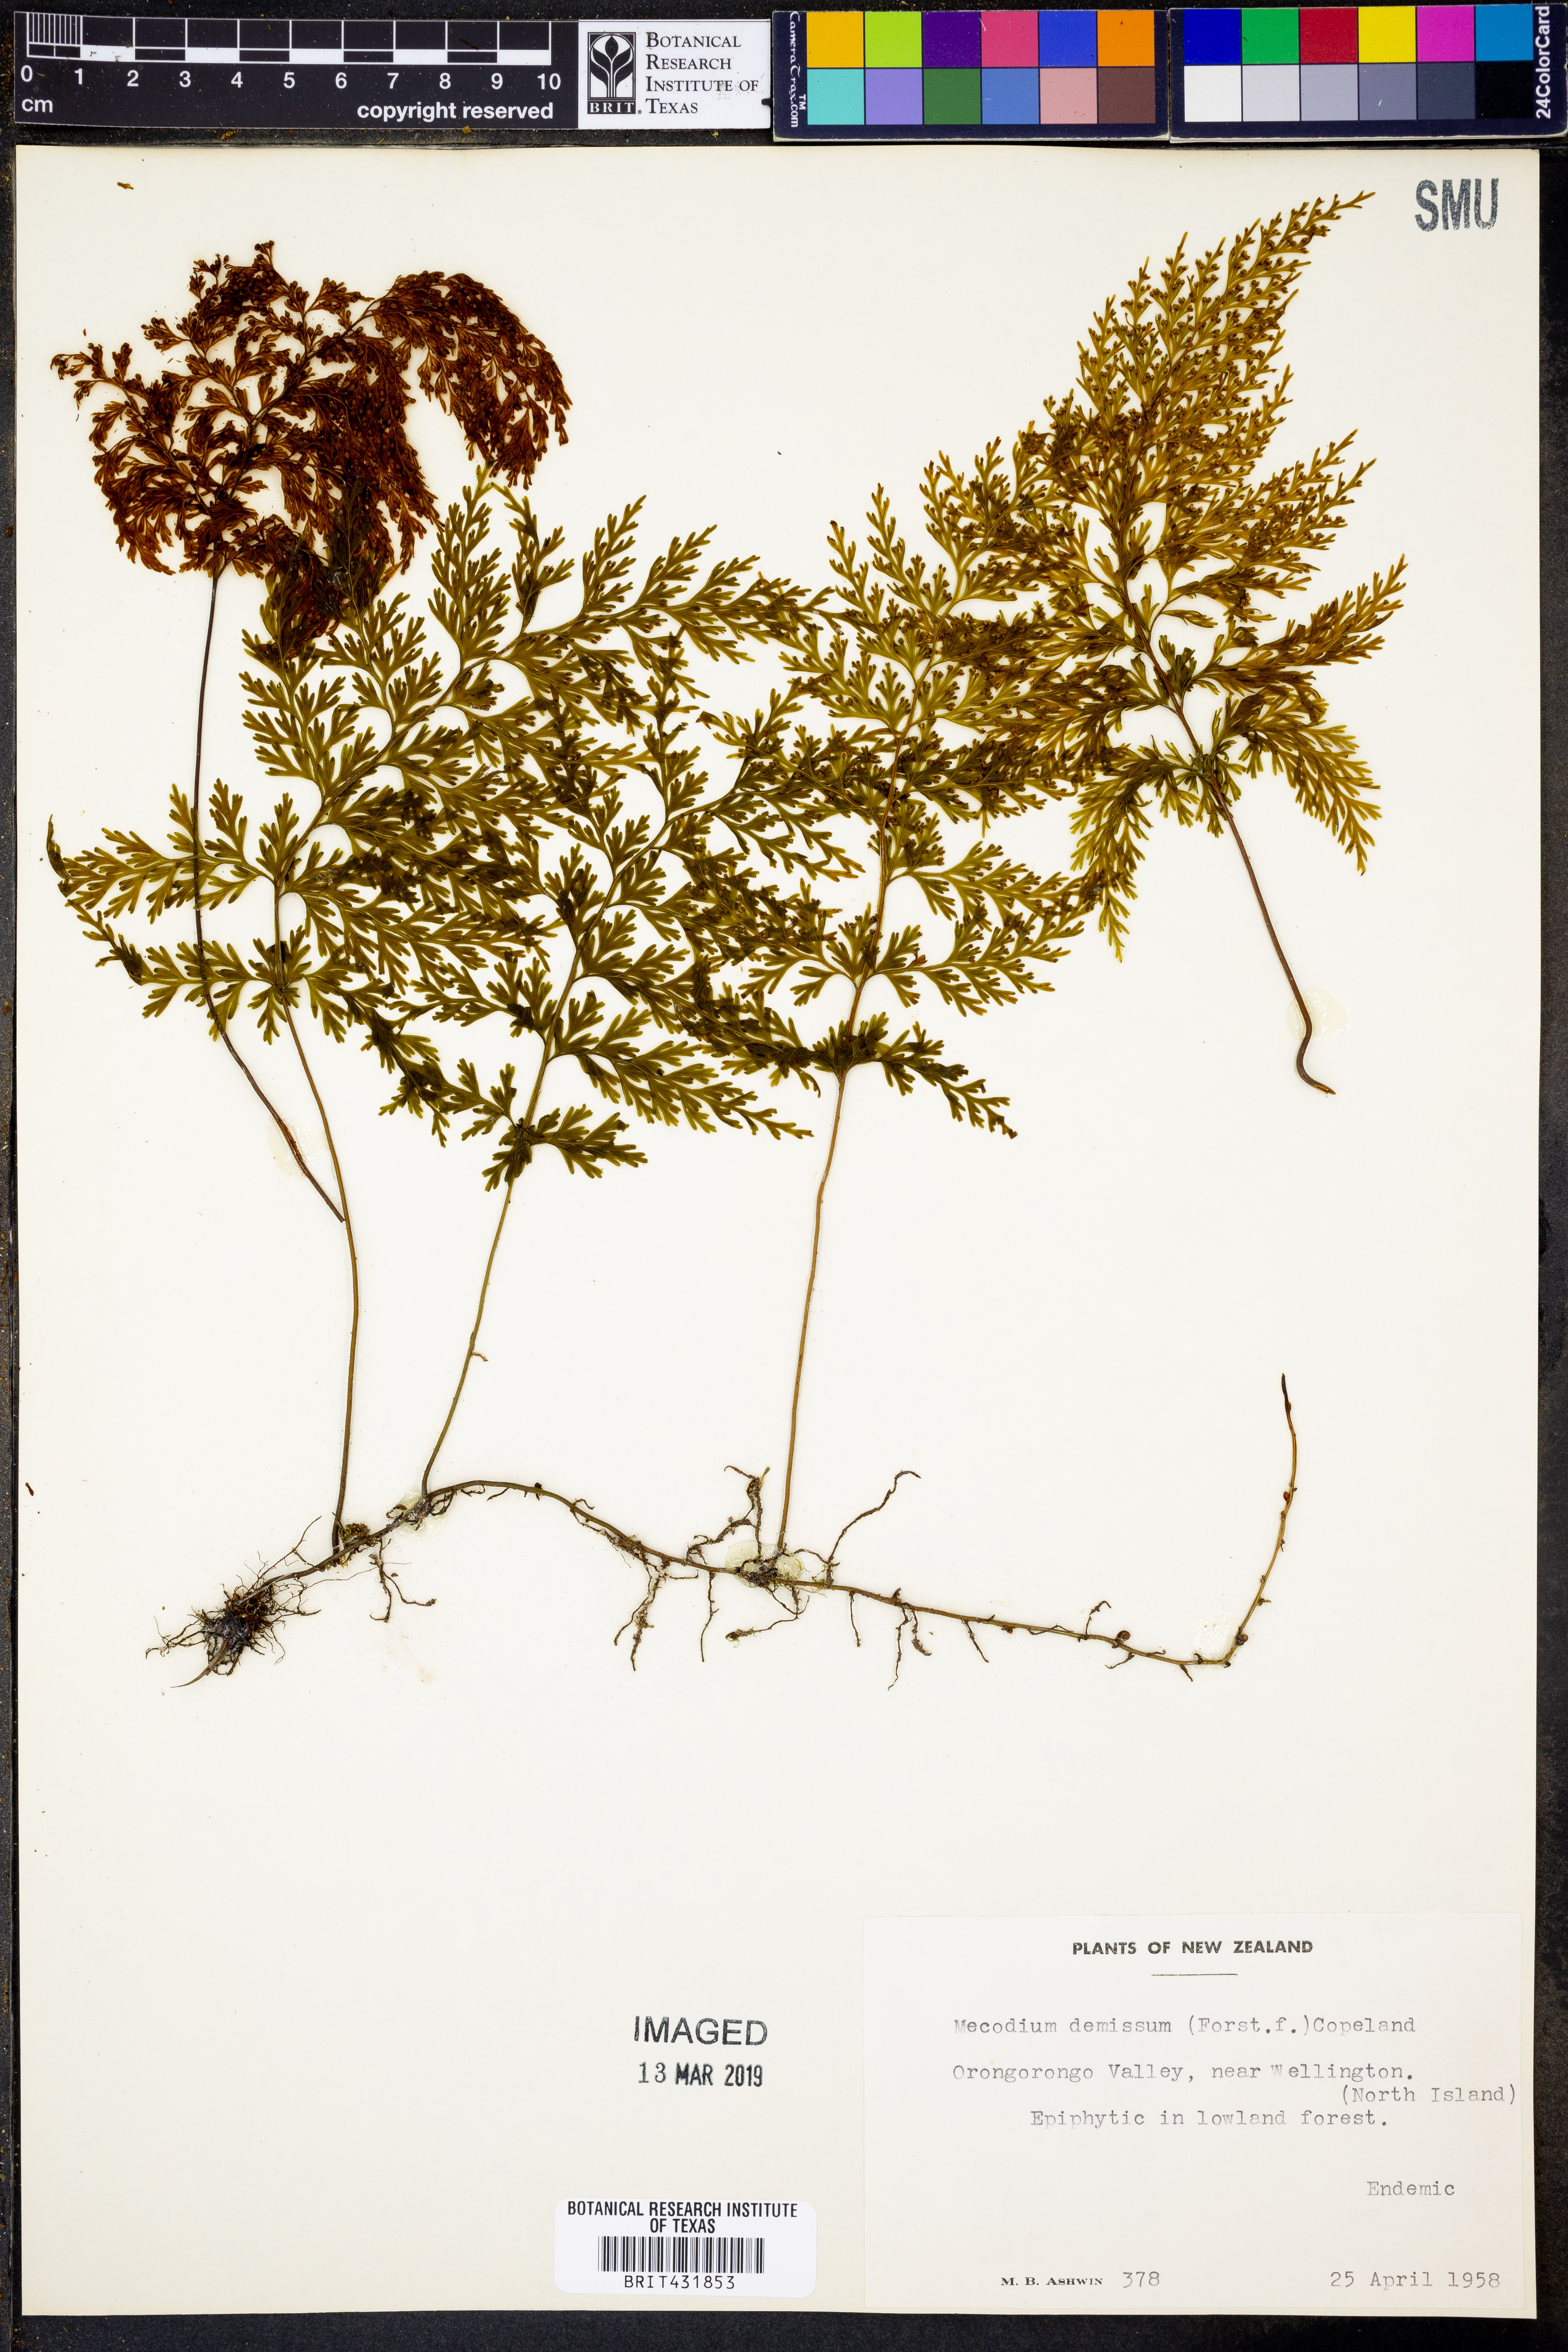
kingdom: Plantae
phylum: Tracheophyta
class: Polypodiopsida
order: Hymenophyllales
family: Hymenophyllaceae
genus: Hymenophyllum
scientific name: Hymenophyllum demissum
